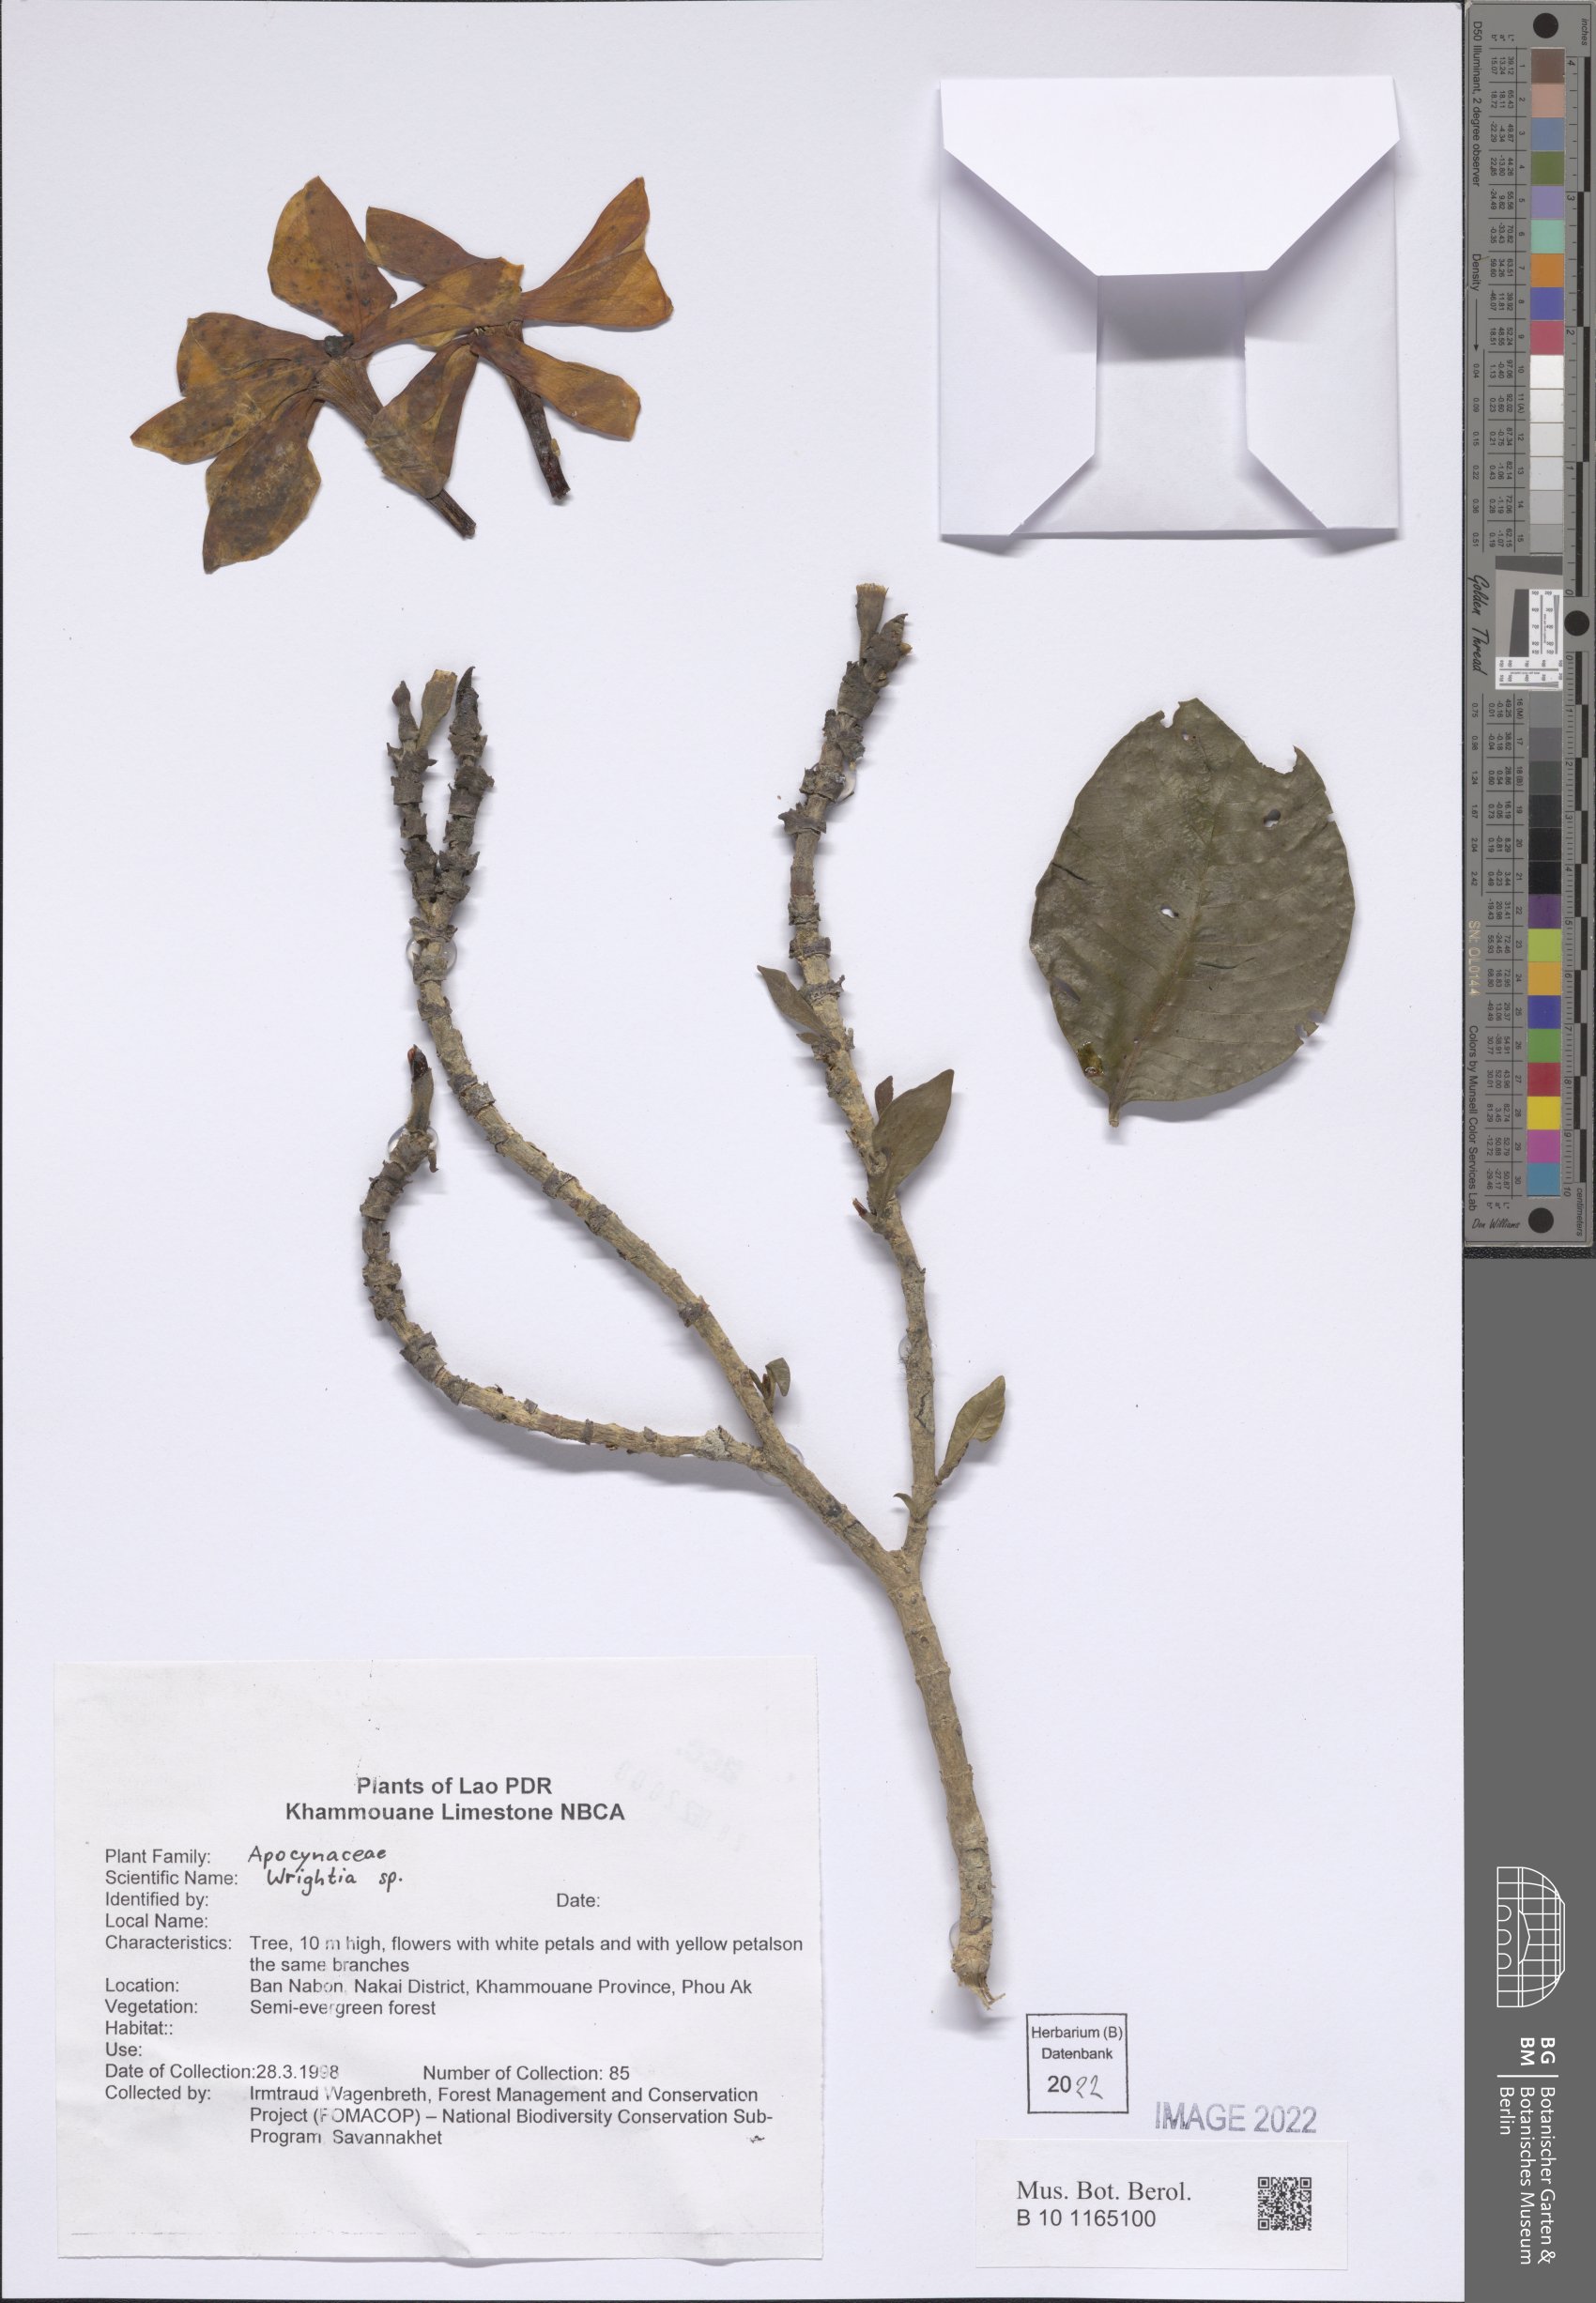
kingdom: Plantae
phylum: Tracheophyta
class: Magnoliopsida
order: Gentianales
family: Apocynaceae
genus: Wrightia
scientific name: Wrightia
